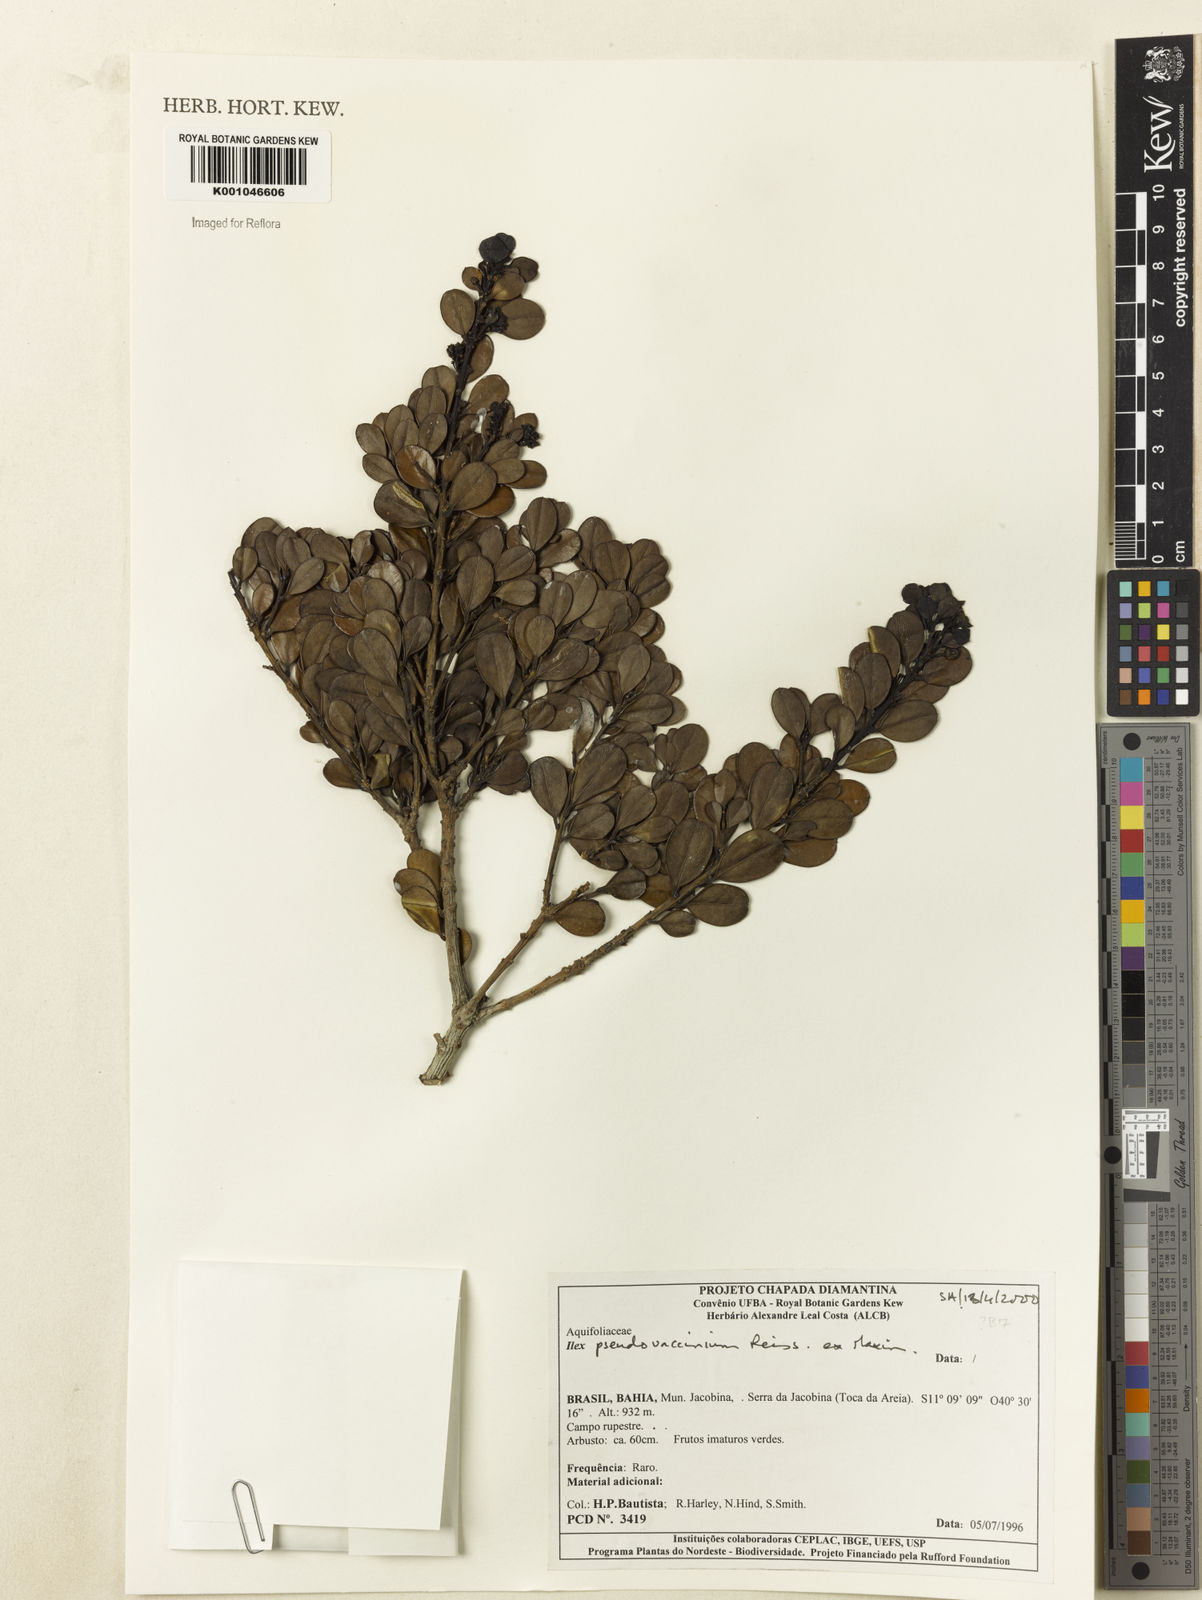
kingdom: Plantae
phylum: Tracheophyta
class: Magnoliopsida
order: Aquifoliales
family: Aquifoliaceae
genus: Ilex
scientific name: Ilex pseudovaccinium
